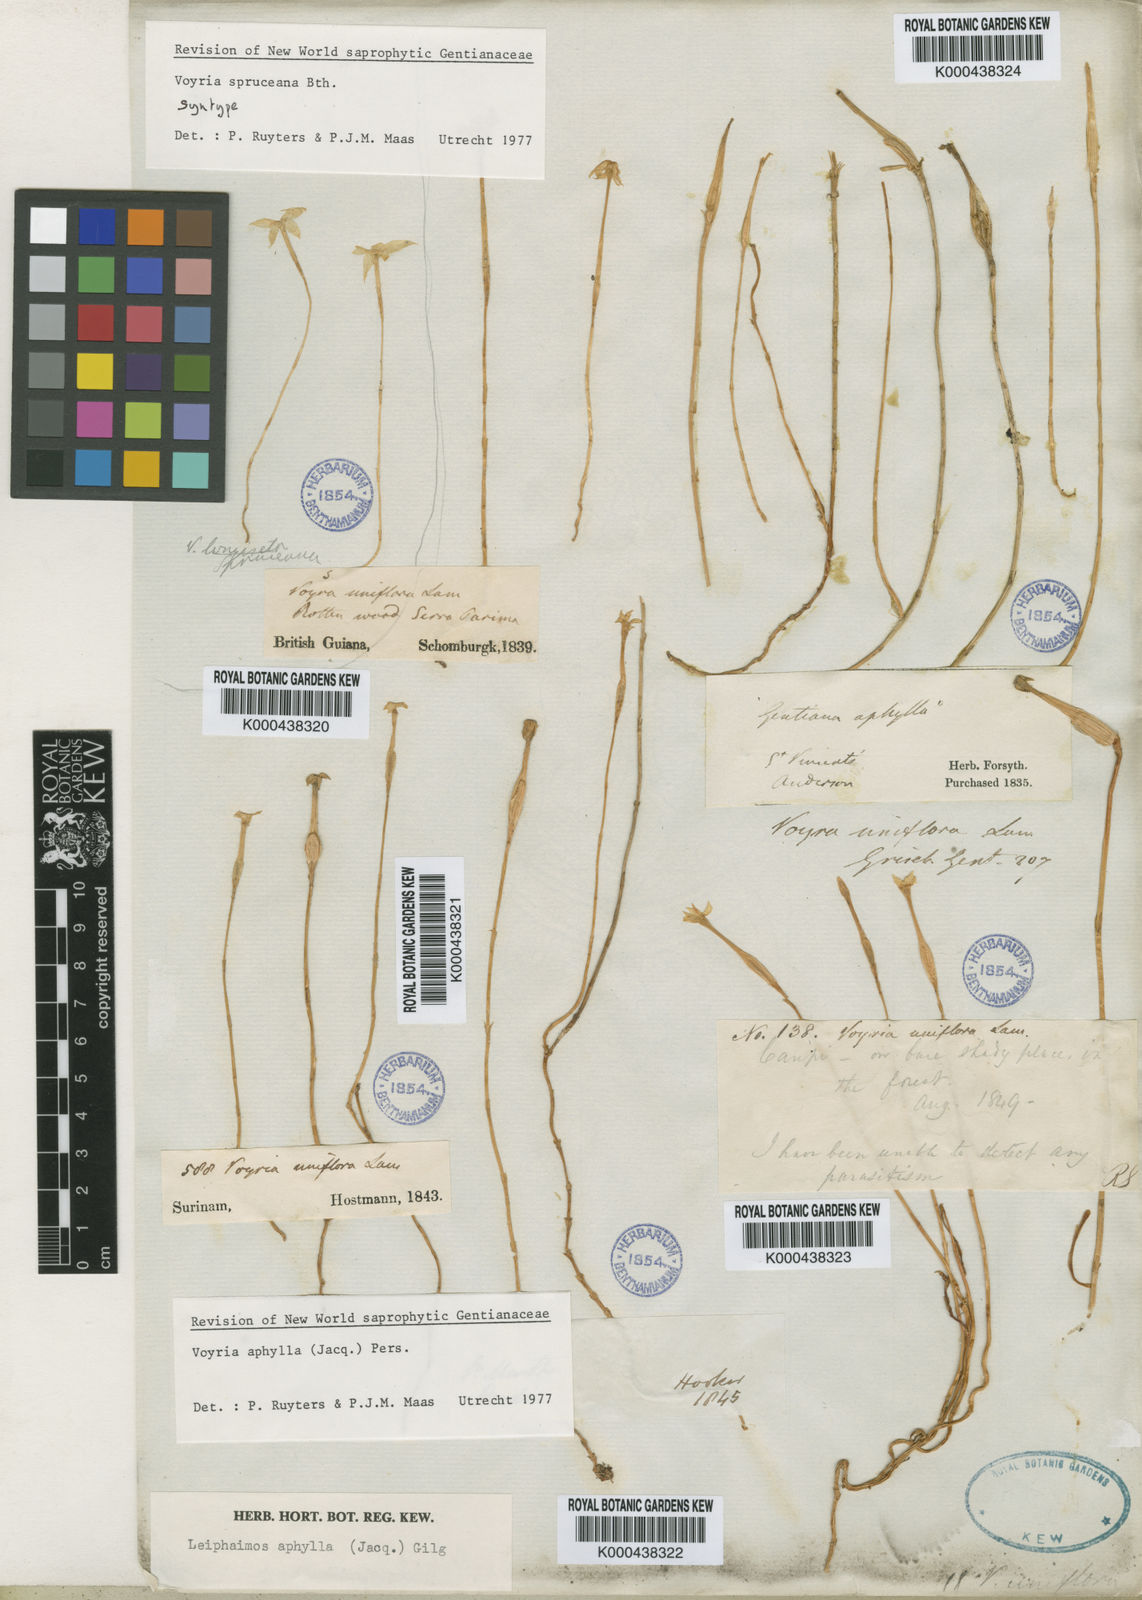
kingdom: Plantae
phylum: Tracheophyta
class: Magnoliopsida
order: Gentianales
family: Gentianaceae
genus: Voyria
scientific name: Voyria spruceana
